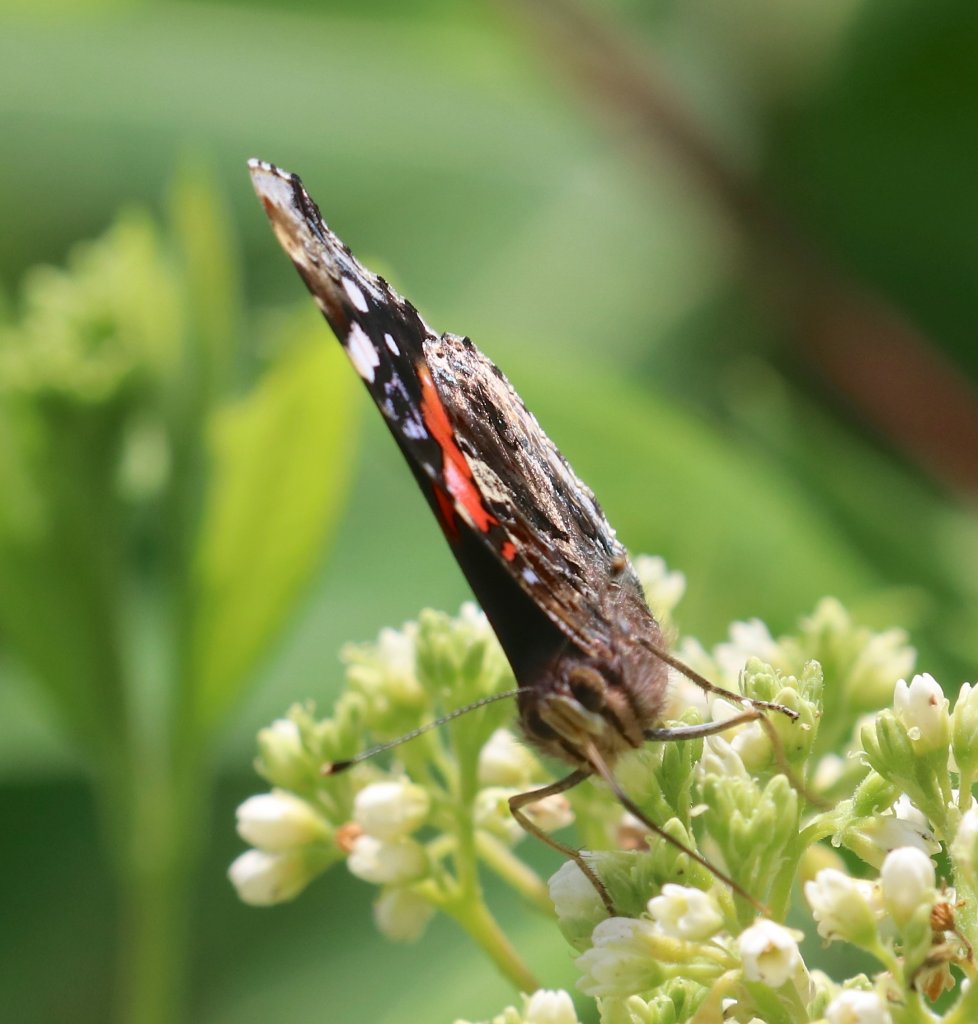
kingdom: Animalia
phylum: Arthropoda
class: Insecta
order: Lepidoptera
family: Nymphalidae
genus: Vanessa
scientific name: Vanessa atalanta
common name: Red Admiral
